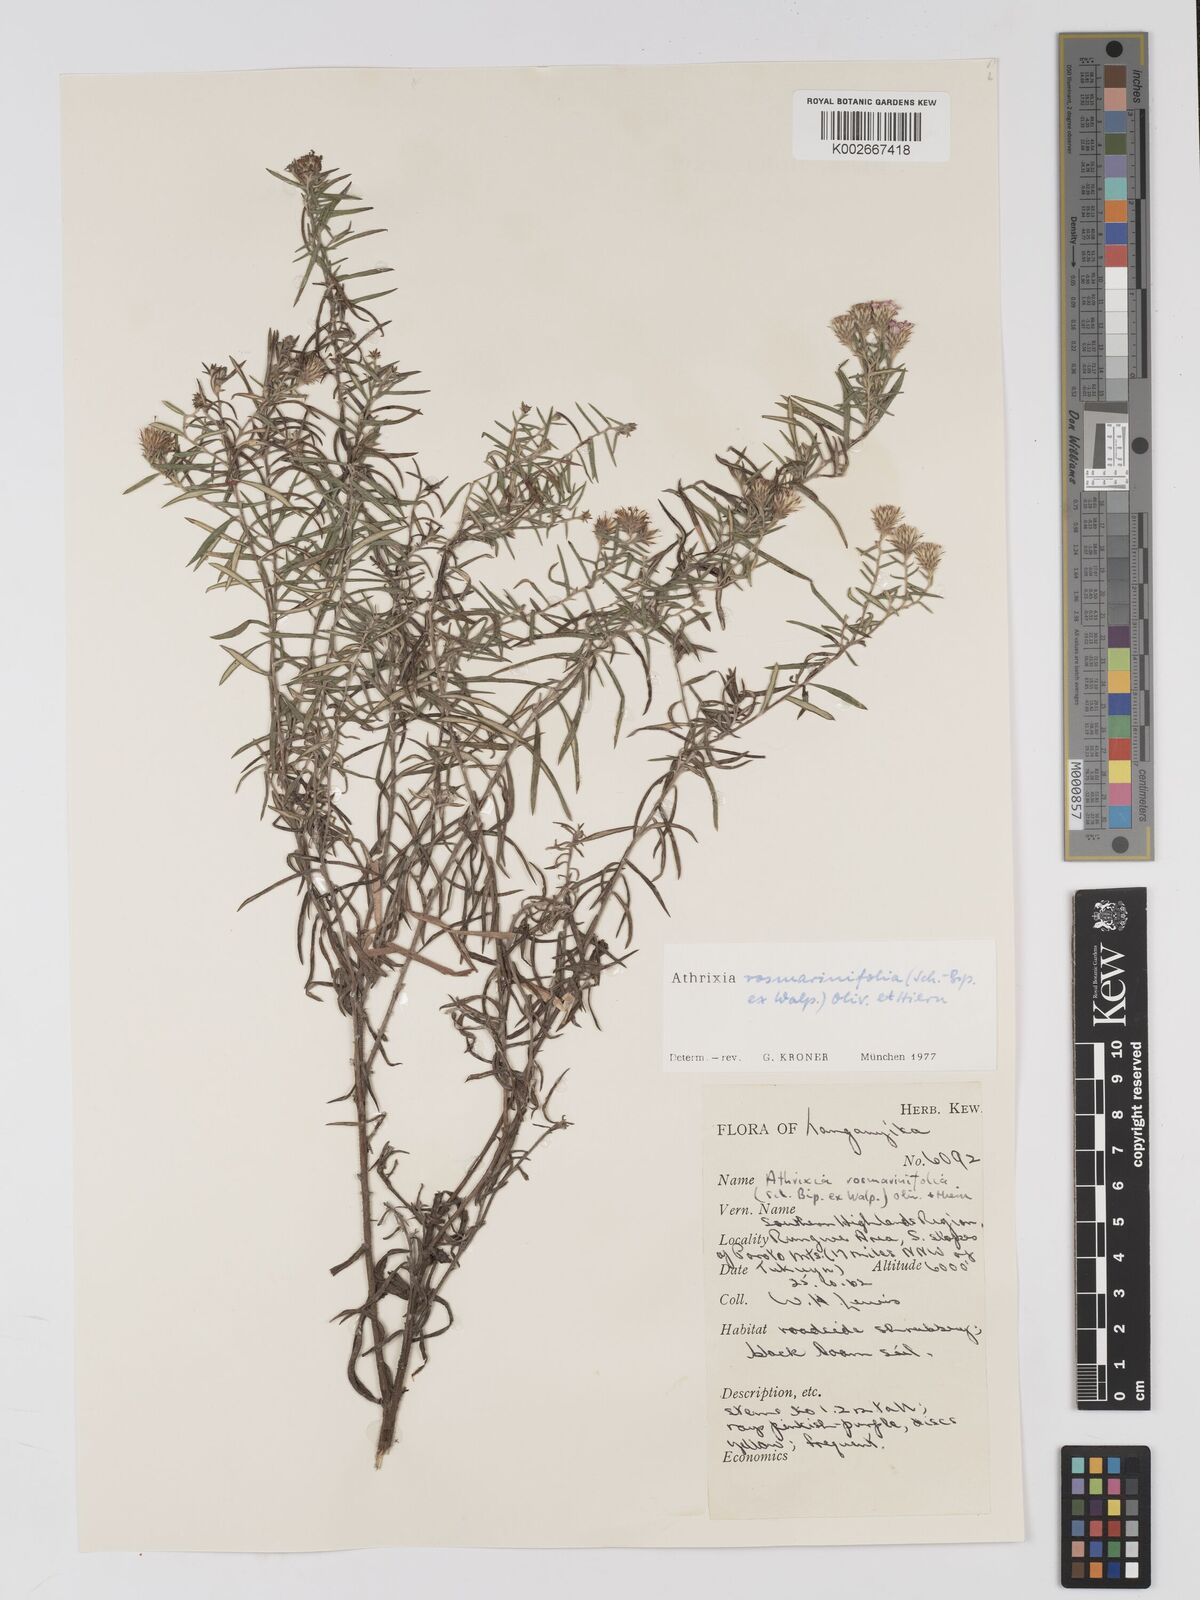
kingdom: Plantae
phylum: Tracheophyta
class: Magnoliopsida
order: Asterales
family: Asteraceae
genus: Athrixia
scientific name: Athrixia rosmarinifolia
